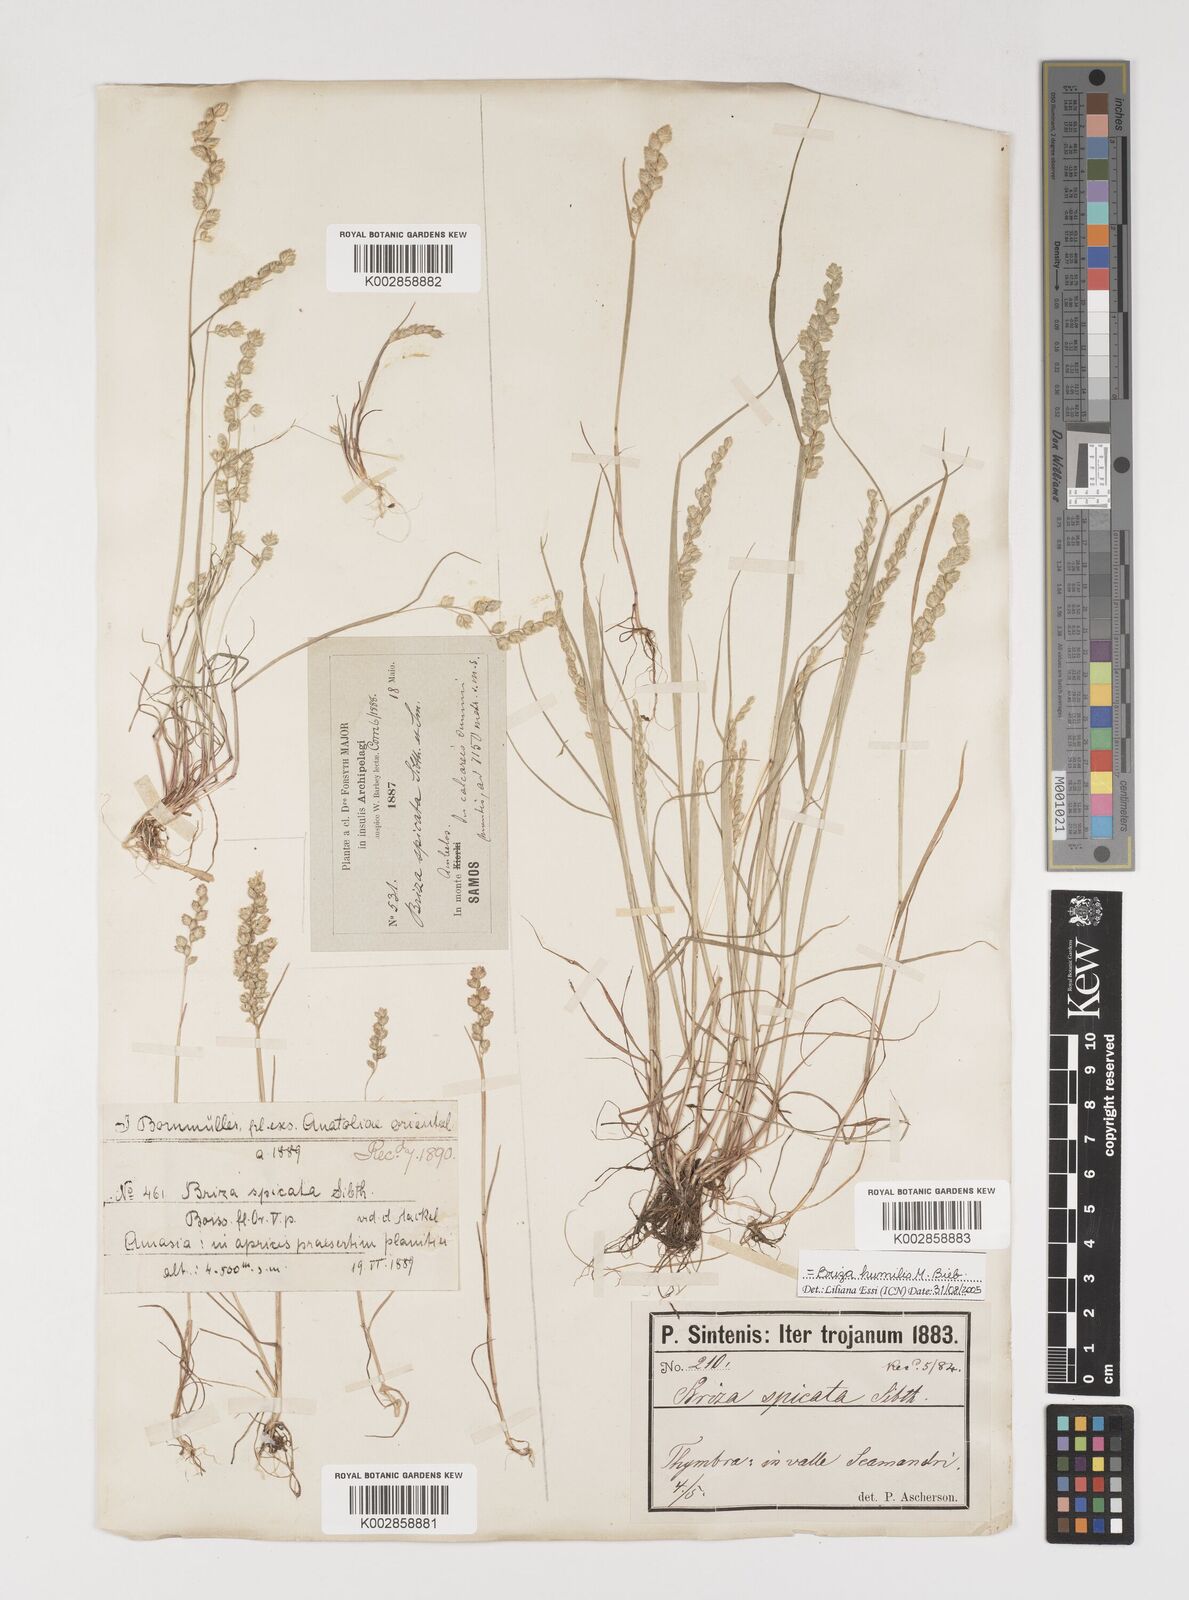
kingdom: Plantae
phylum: Tracheophyta
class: Liliopsida
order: Poales
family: Poaceae
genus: Briza
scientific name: Briza humilis
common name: Spiked quaking grass
